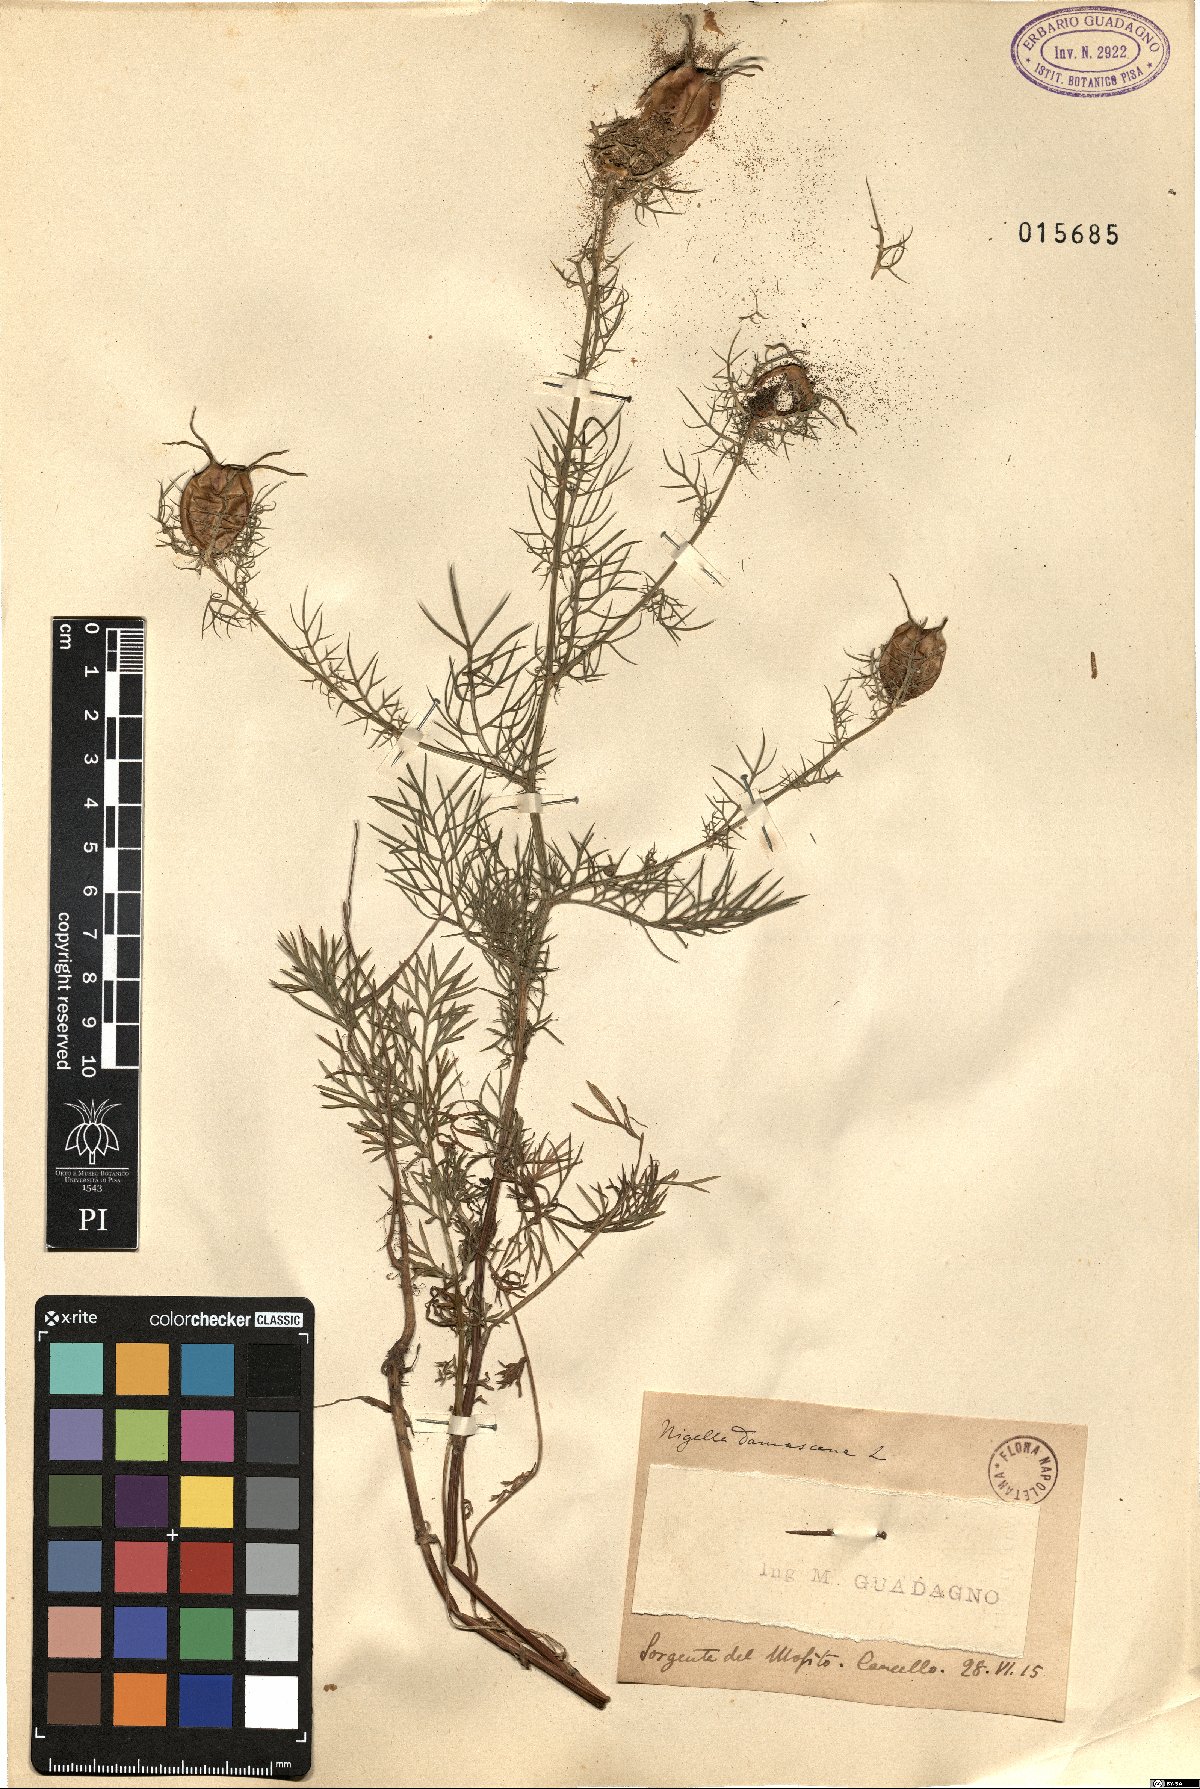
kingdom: Plantae
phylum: Tracheophyta
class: Magnoliopsida
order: Ranunculales
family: Ranunculaceae
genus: Nigella
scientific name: Nigella damascena
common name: Love-in-a-mist
